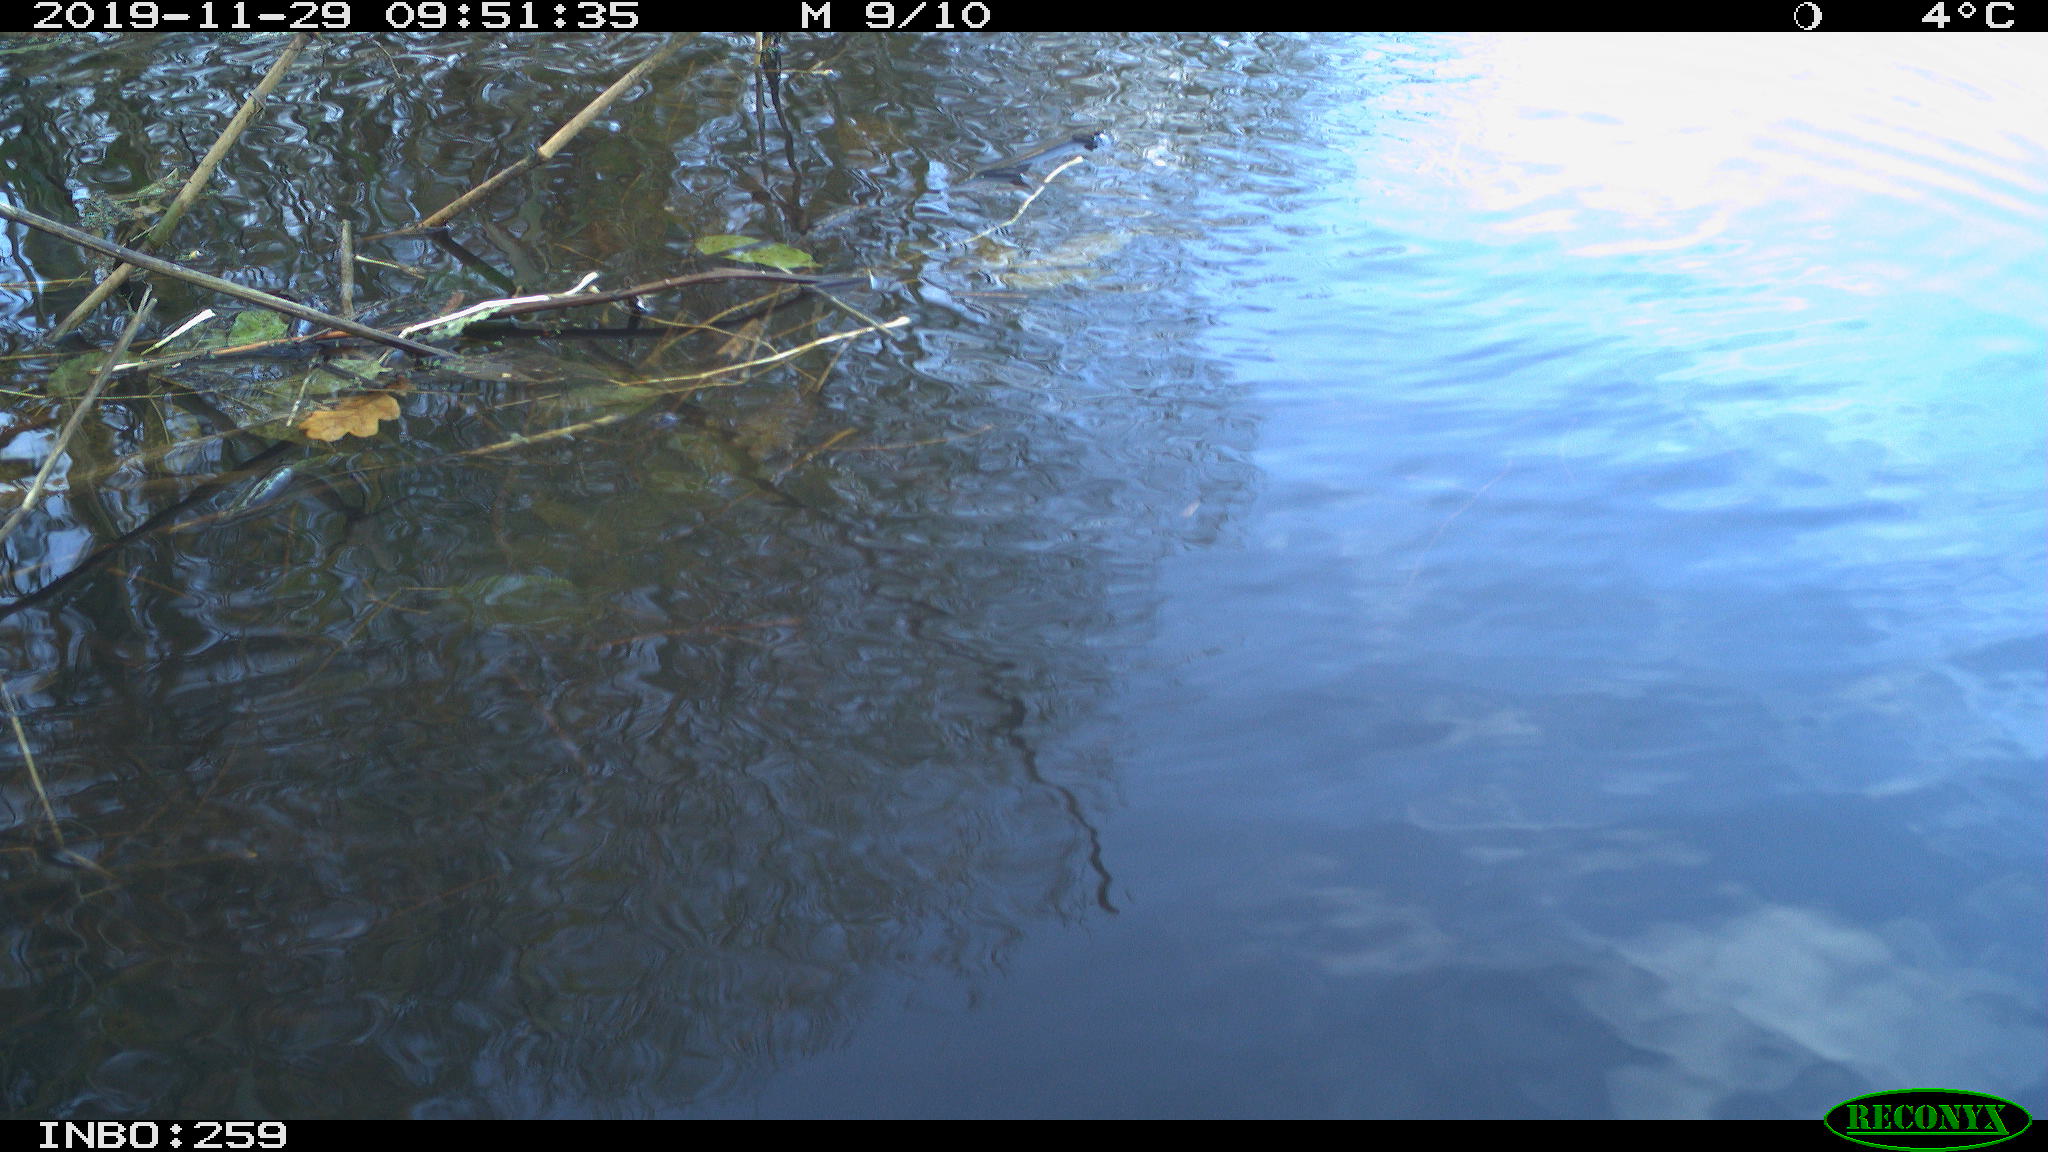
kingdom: Animalia
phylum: Chordata
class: Aves
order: Gruiformes
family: Rallidae
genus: Gallinula
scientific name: Gallinula chloropus
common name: Common moorhen
